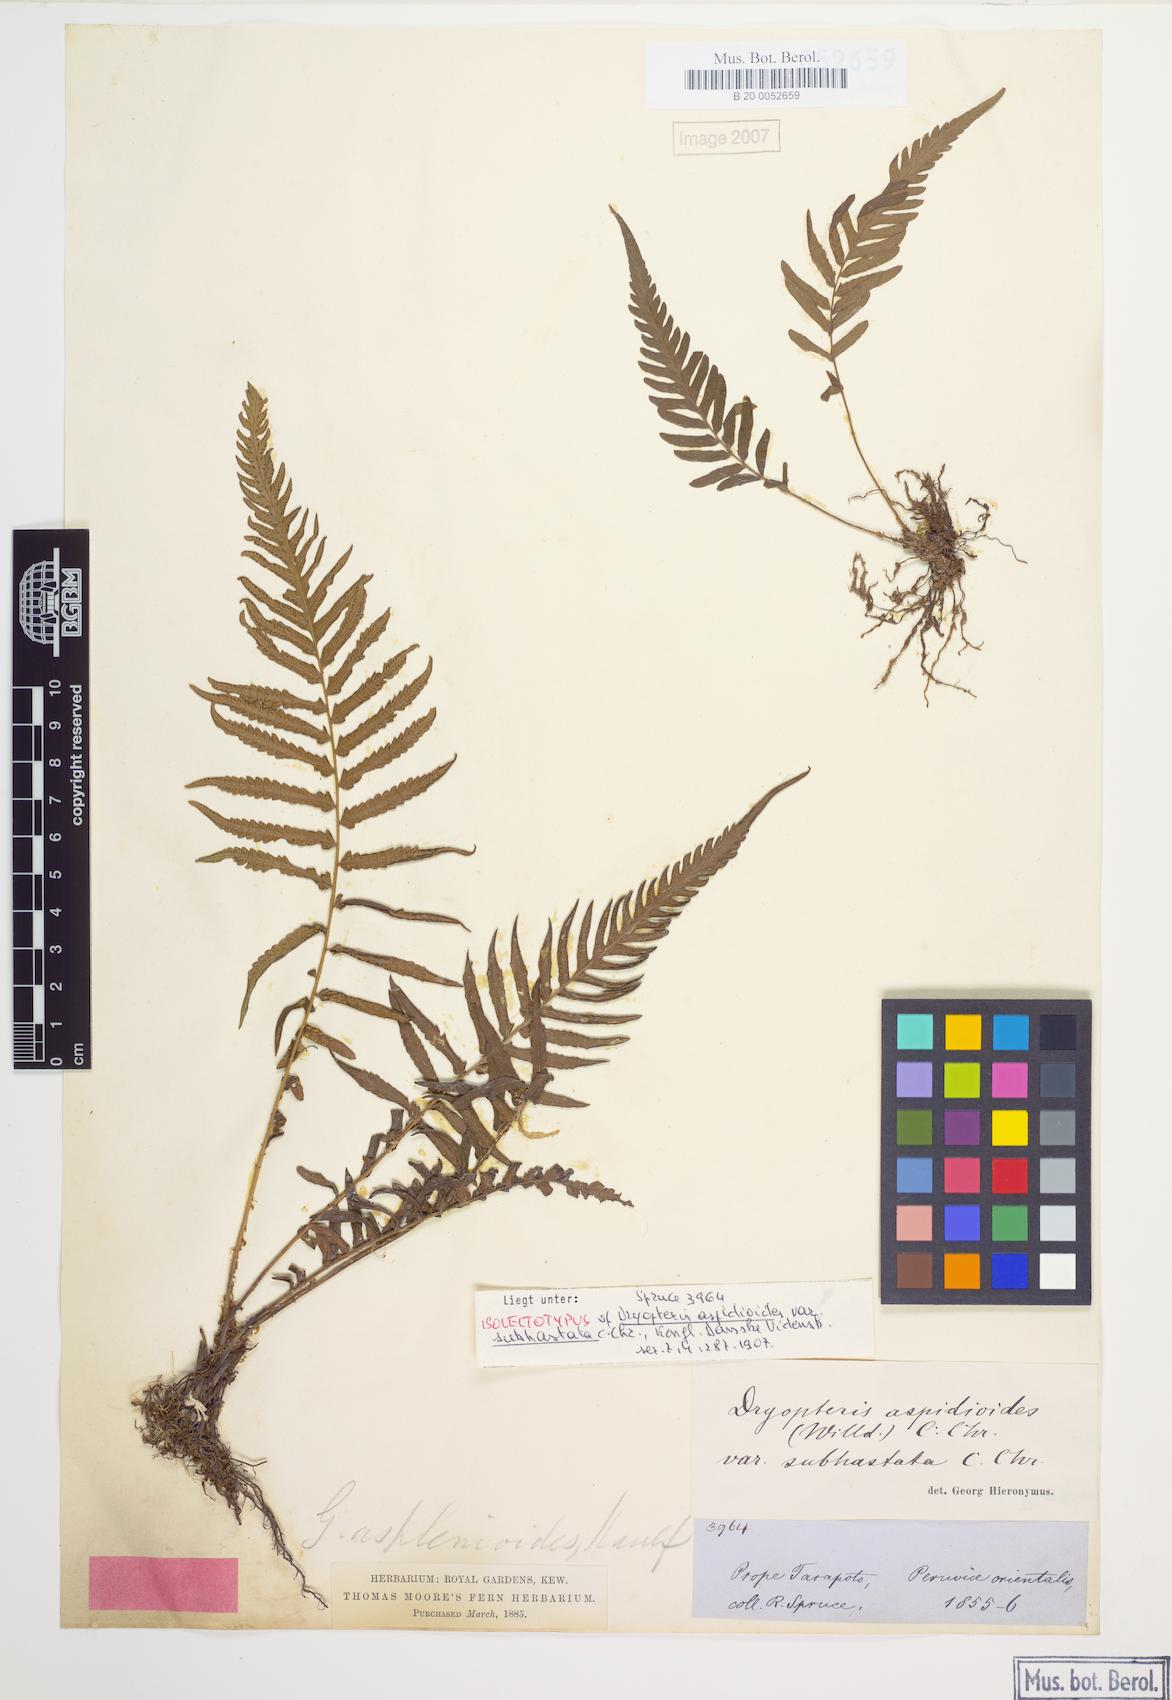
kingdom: Plantae
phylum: Tracheophyta
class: Polypodiopsida
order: Polypodiales
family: Thelypteridaceae
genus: Amauropelta
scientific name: Amauropelta aspidioides
